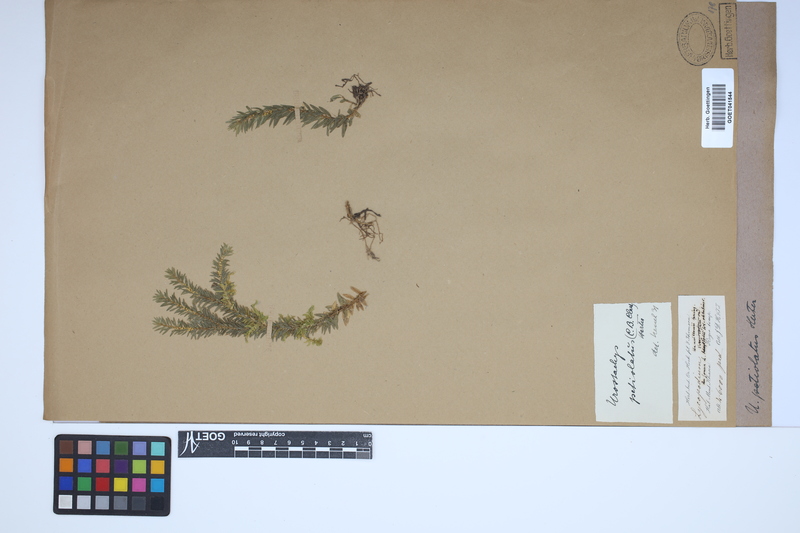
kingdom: Plantae
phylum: Tracheophyta
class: Lycopodiopsida
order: Lycopodiales
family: Lycopodiaceae
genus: Phlegmariurus
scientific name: Phlegmariurus hamiltonii
